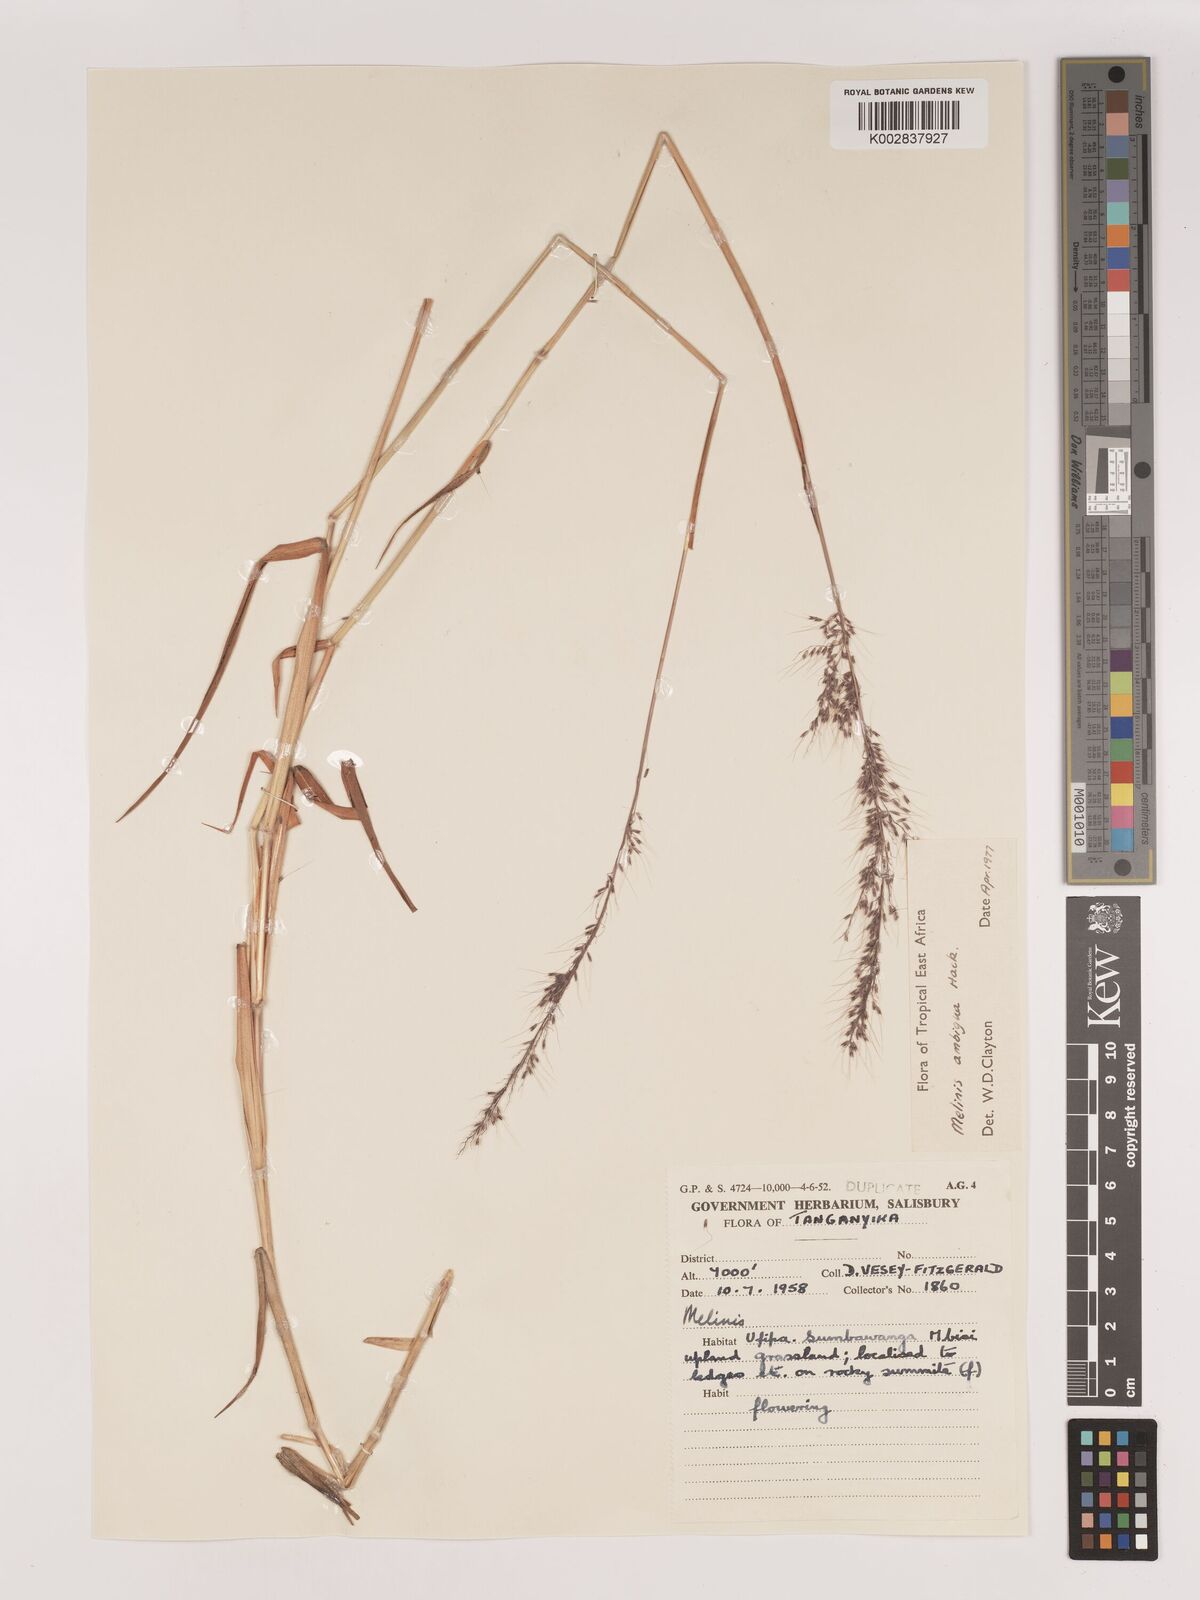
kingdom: Plantae
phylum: Tracheophyta
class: Liliopsida
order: Poales
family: Poaceae
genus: Melinis
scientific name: Melinis ambigua
